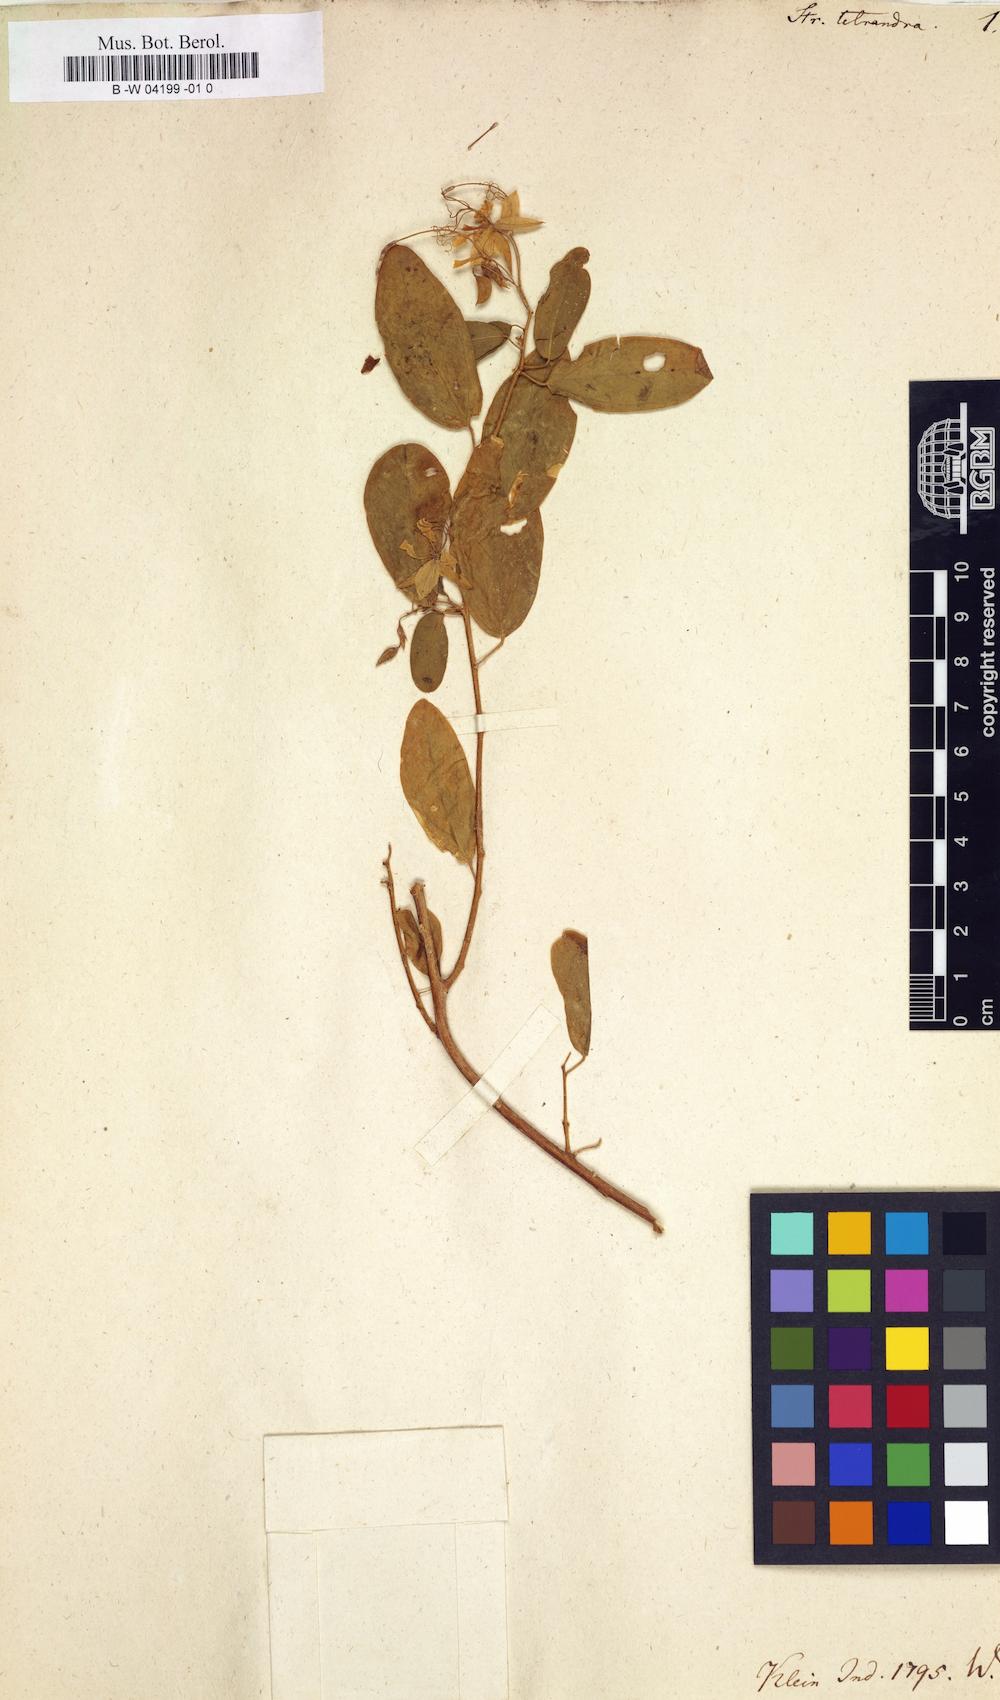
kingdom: Plantae
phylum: Tracheophyta
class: Magnoliopsida
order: Brassicales
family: Capparaceae
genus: Cadaba
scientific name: Cadaba fruticosa
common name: Indian cadaba
